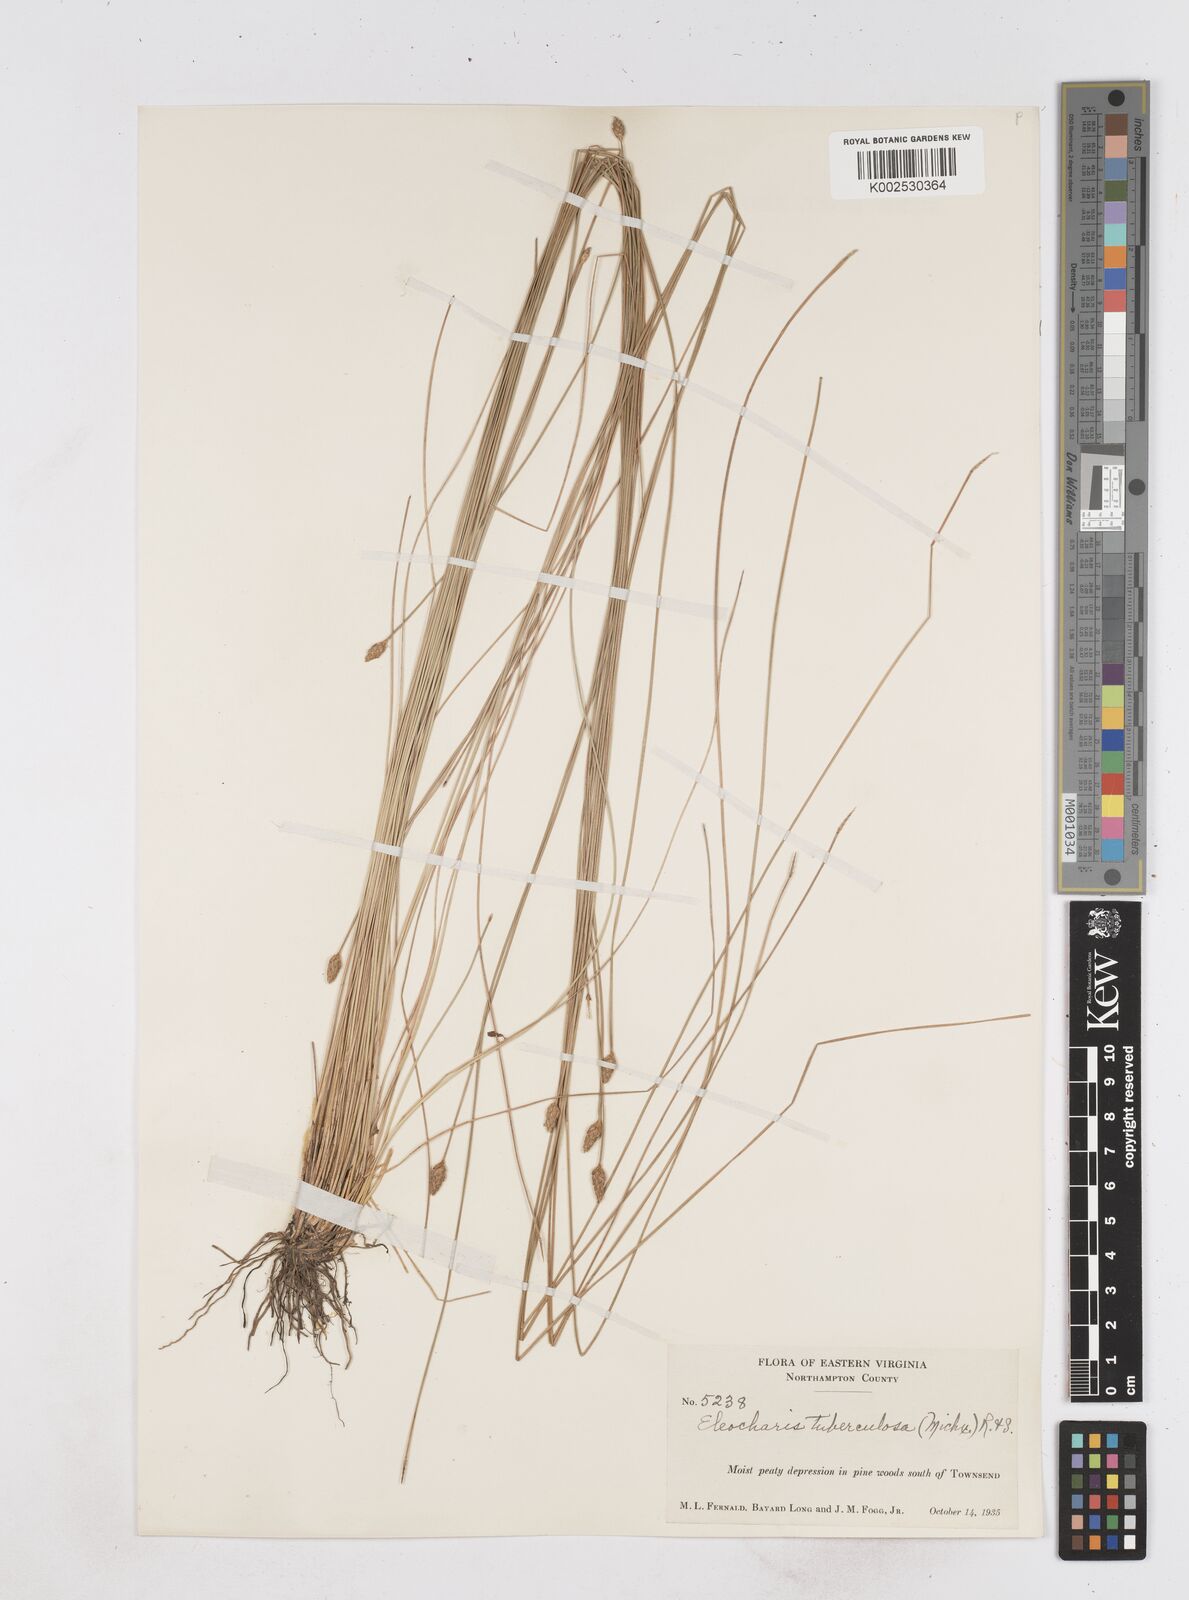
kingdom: Plantae
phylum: Tracheophyta
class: Liliopsida
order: Poales
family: Cyperaceae
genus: Eleocharis
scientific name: Eleocharis tuberculosa
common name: Cone-cup spikerush
